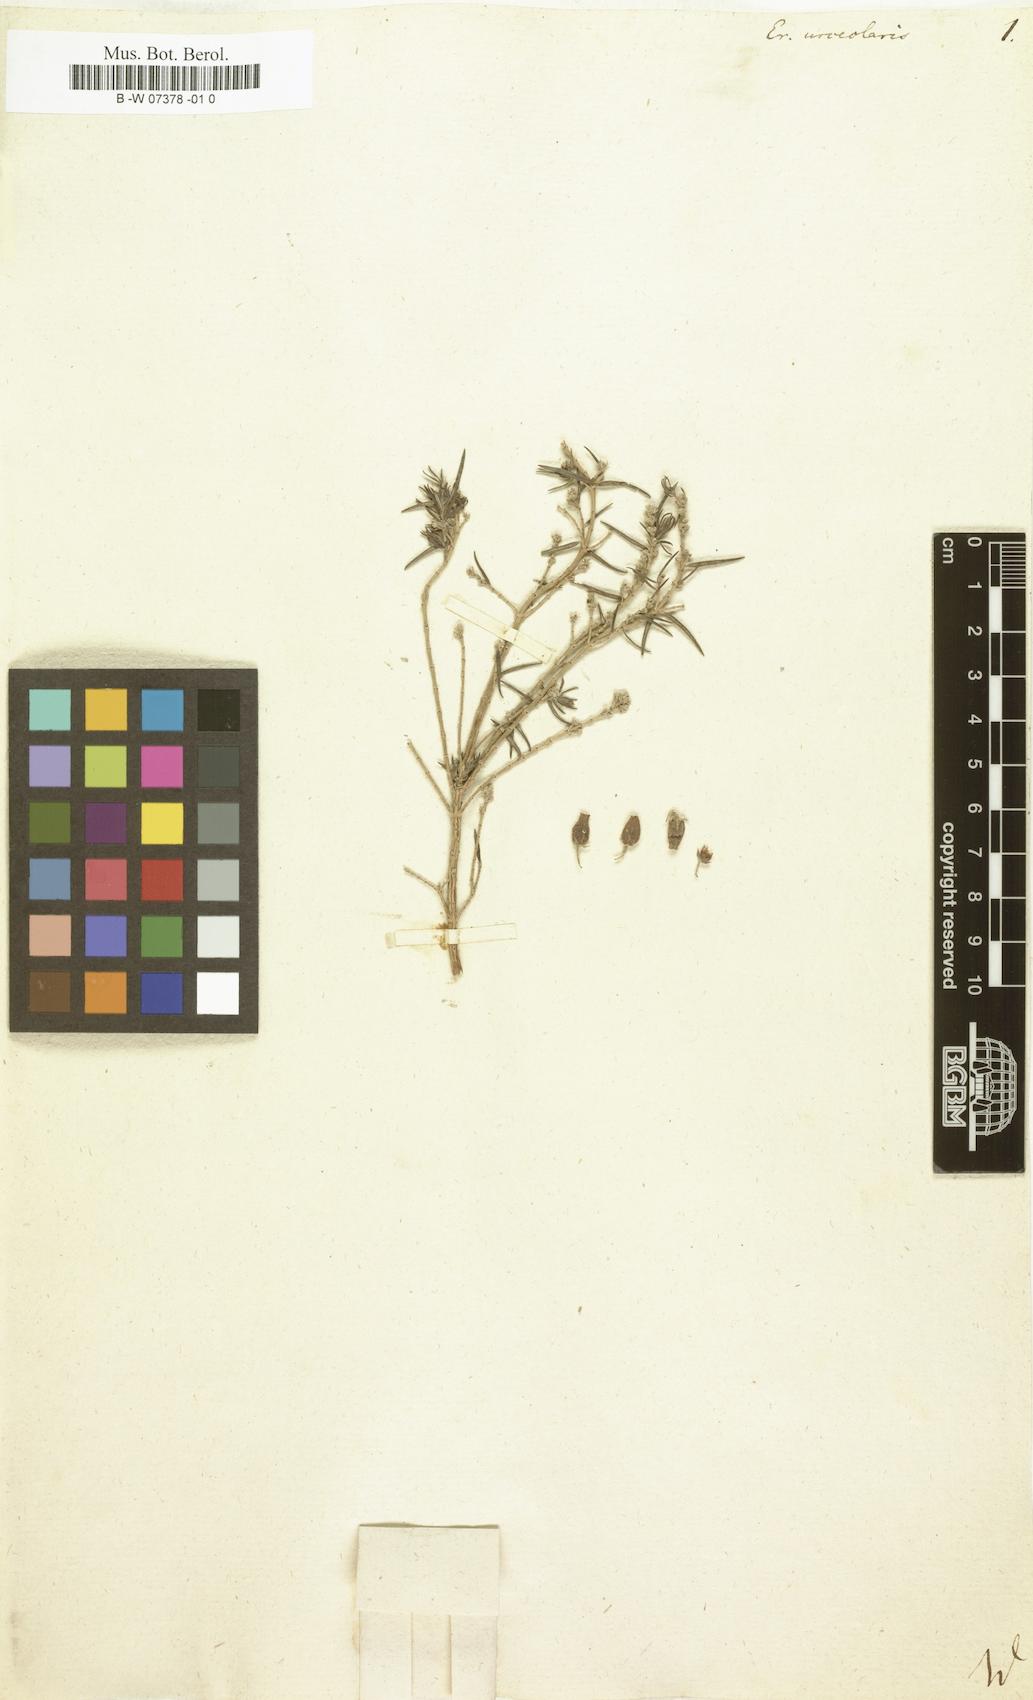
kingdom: Plantae
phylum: Tracheophyta
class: Magnoliopsida
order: Ericales
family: Ericaceae
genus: Erica
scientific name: Erica
